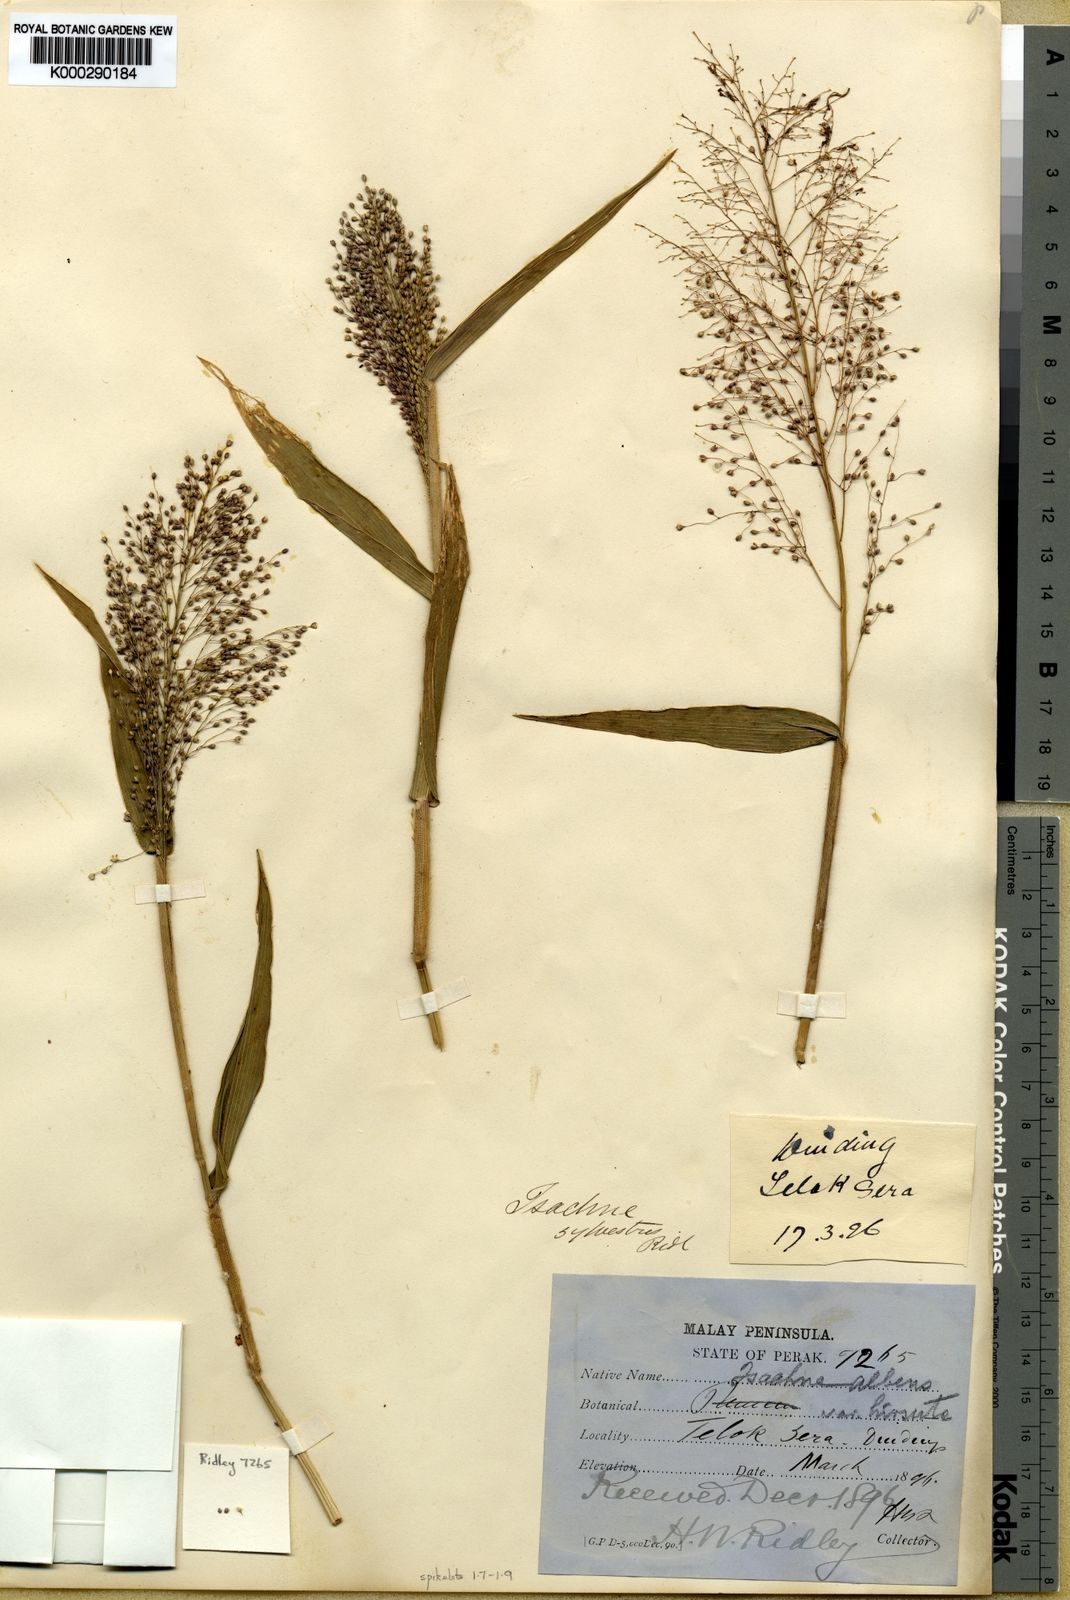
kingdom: Plantae
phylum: Tracheophyta
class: Liliopsida
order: Poales
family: Poaceae
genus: Isachne
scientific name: Isachne sylvestris
